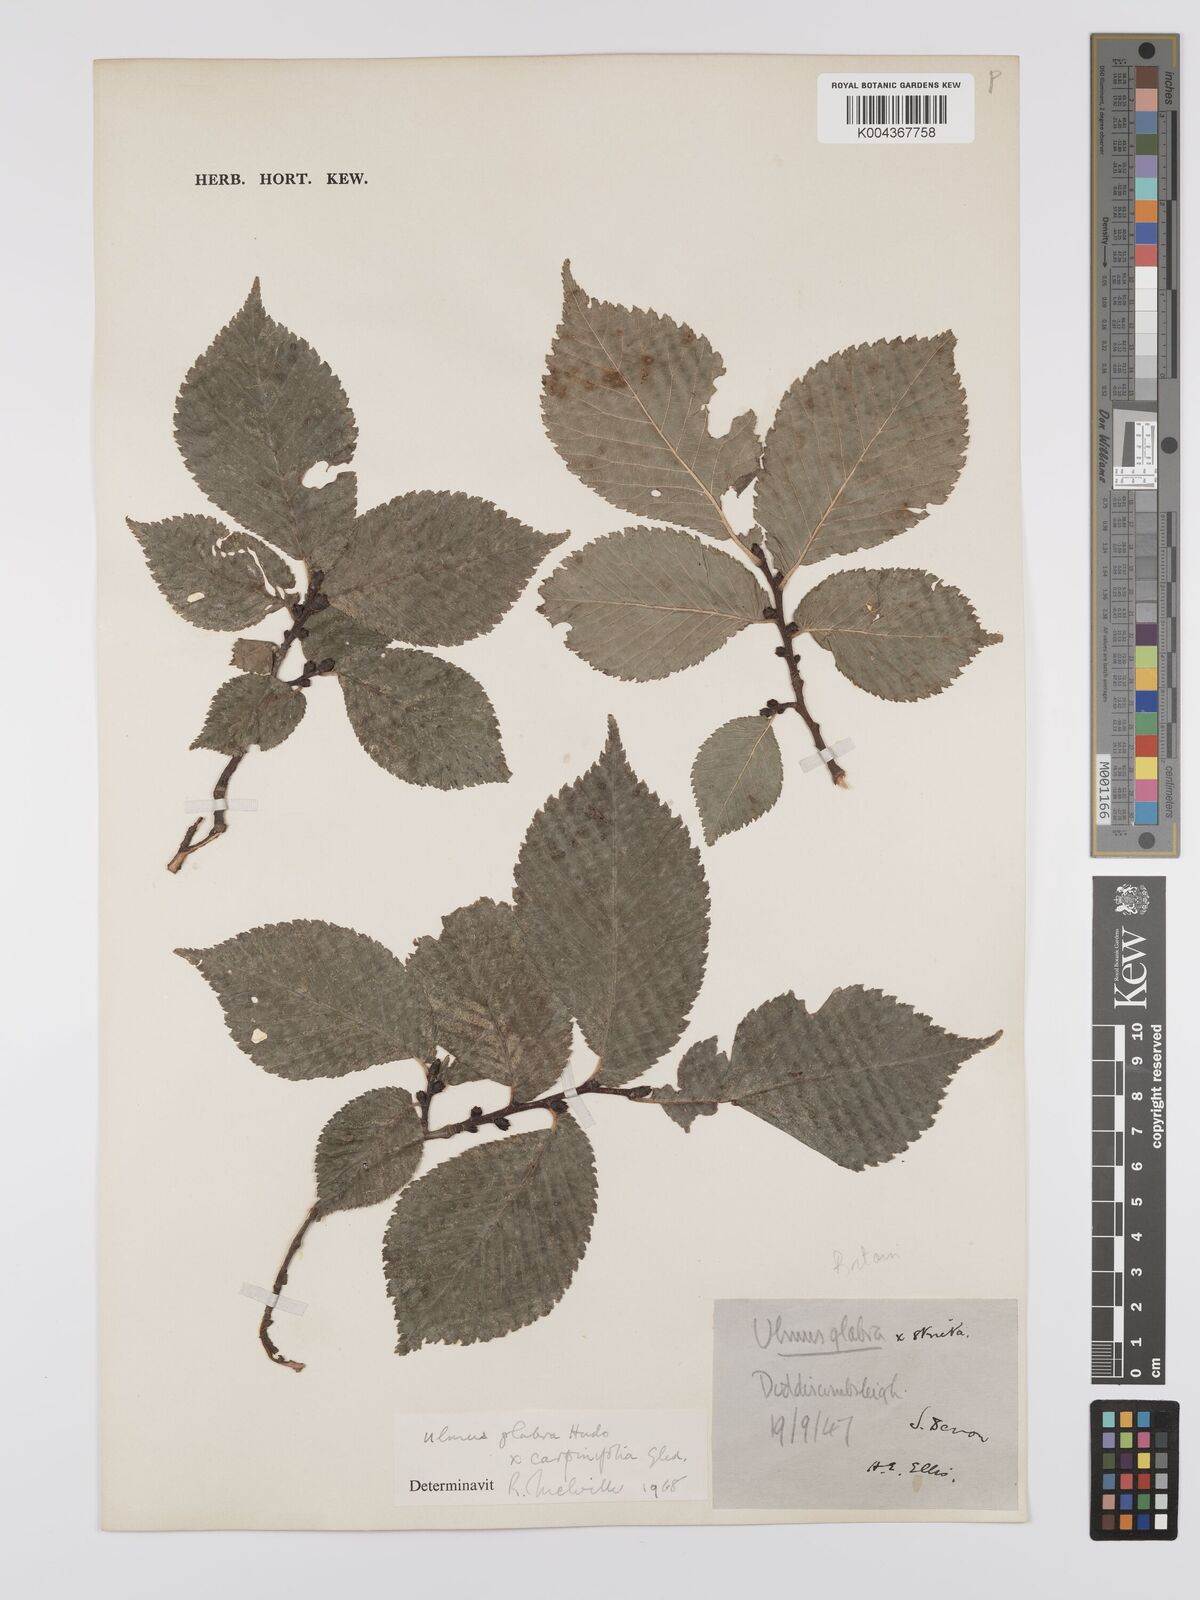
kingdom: Plantae
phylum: Tracheophyta
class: Magnoliopsida
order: Rosales
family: Ulmaceae
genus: Ulmus
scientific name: Ulmus
